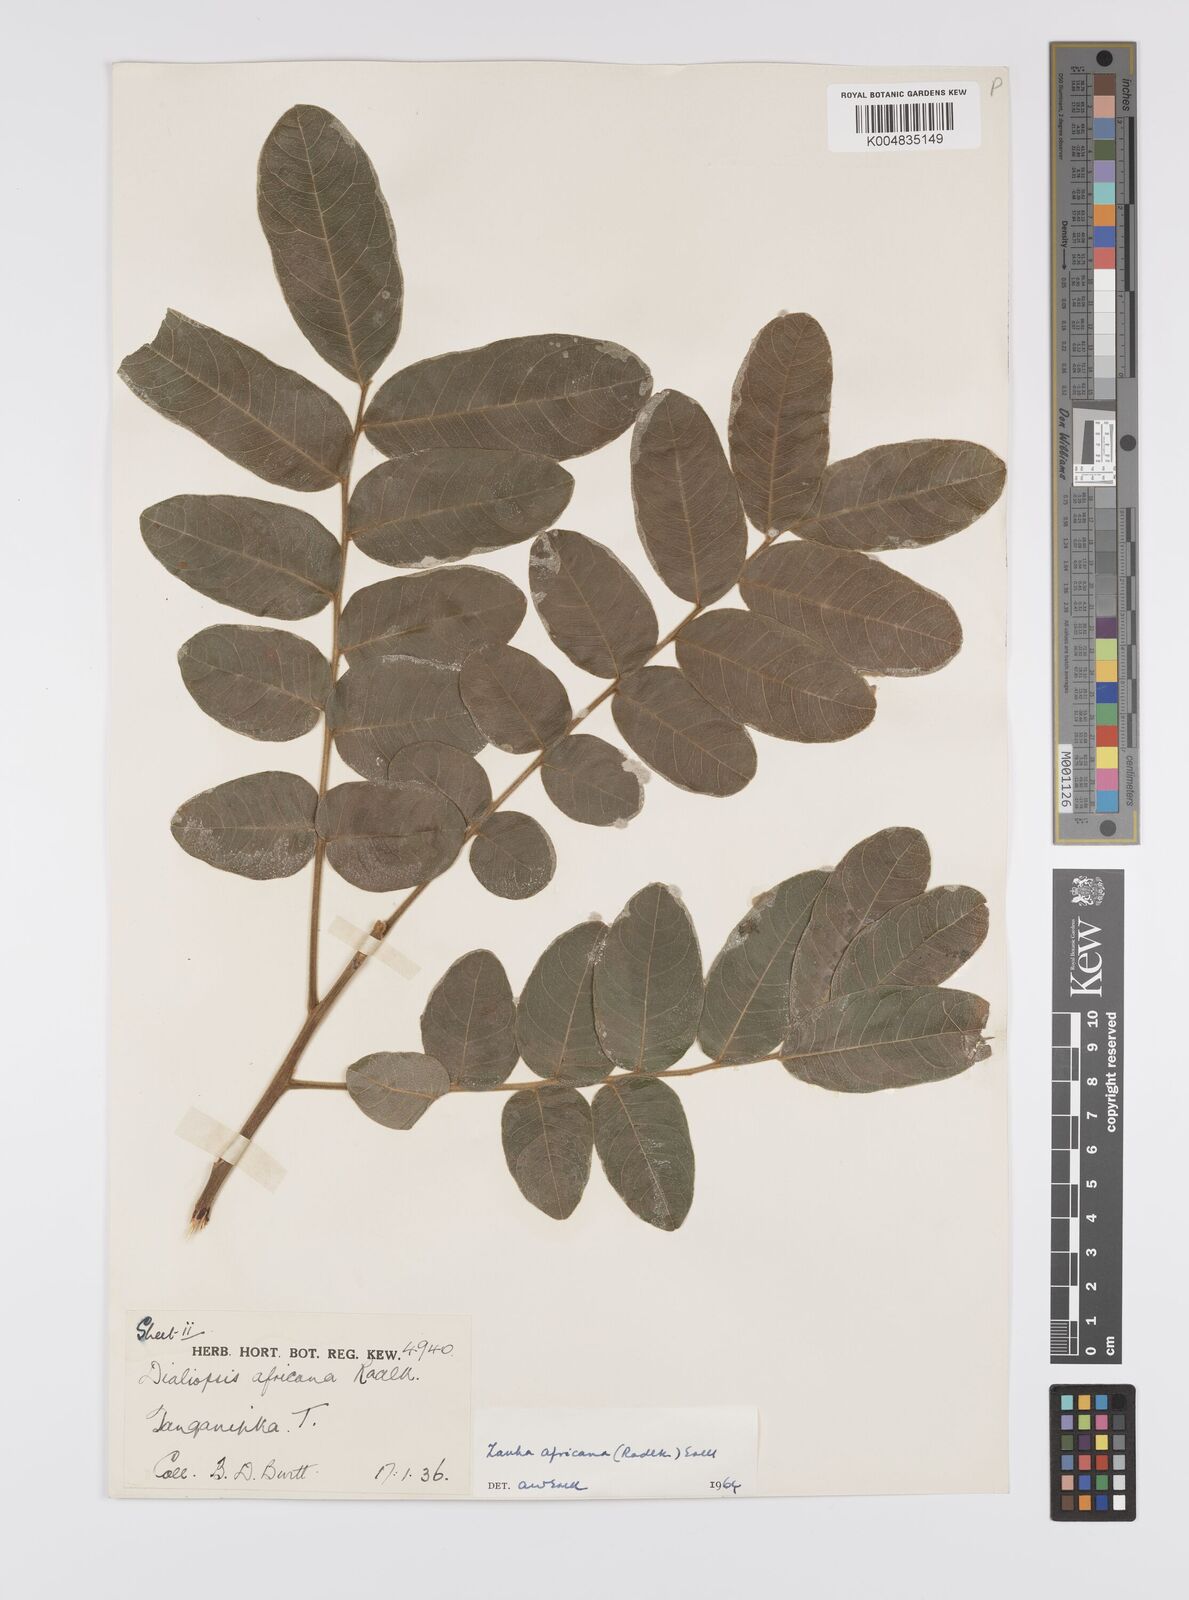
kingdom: Plantae
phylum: Tracheophyta
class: Magnoliopsida
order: Sapindales
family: Sapindaceae
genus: Zanha
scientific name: Zanha africana
